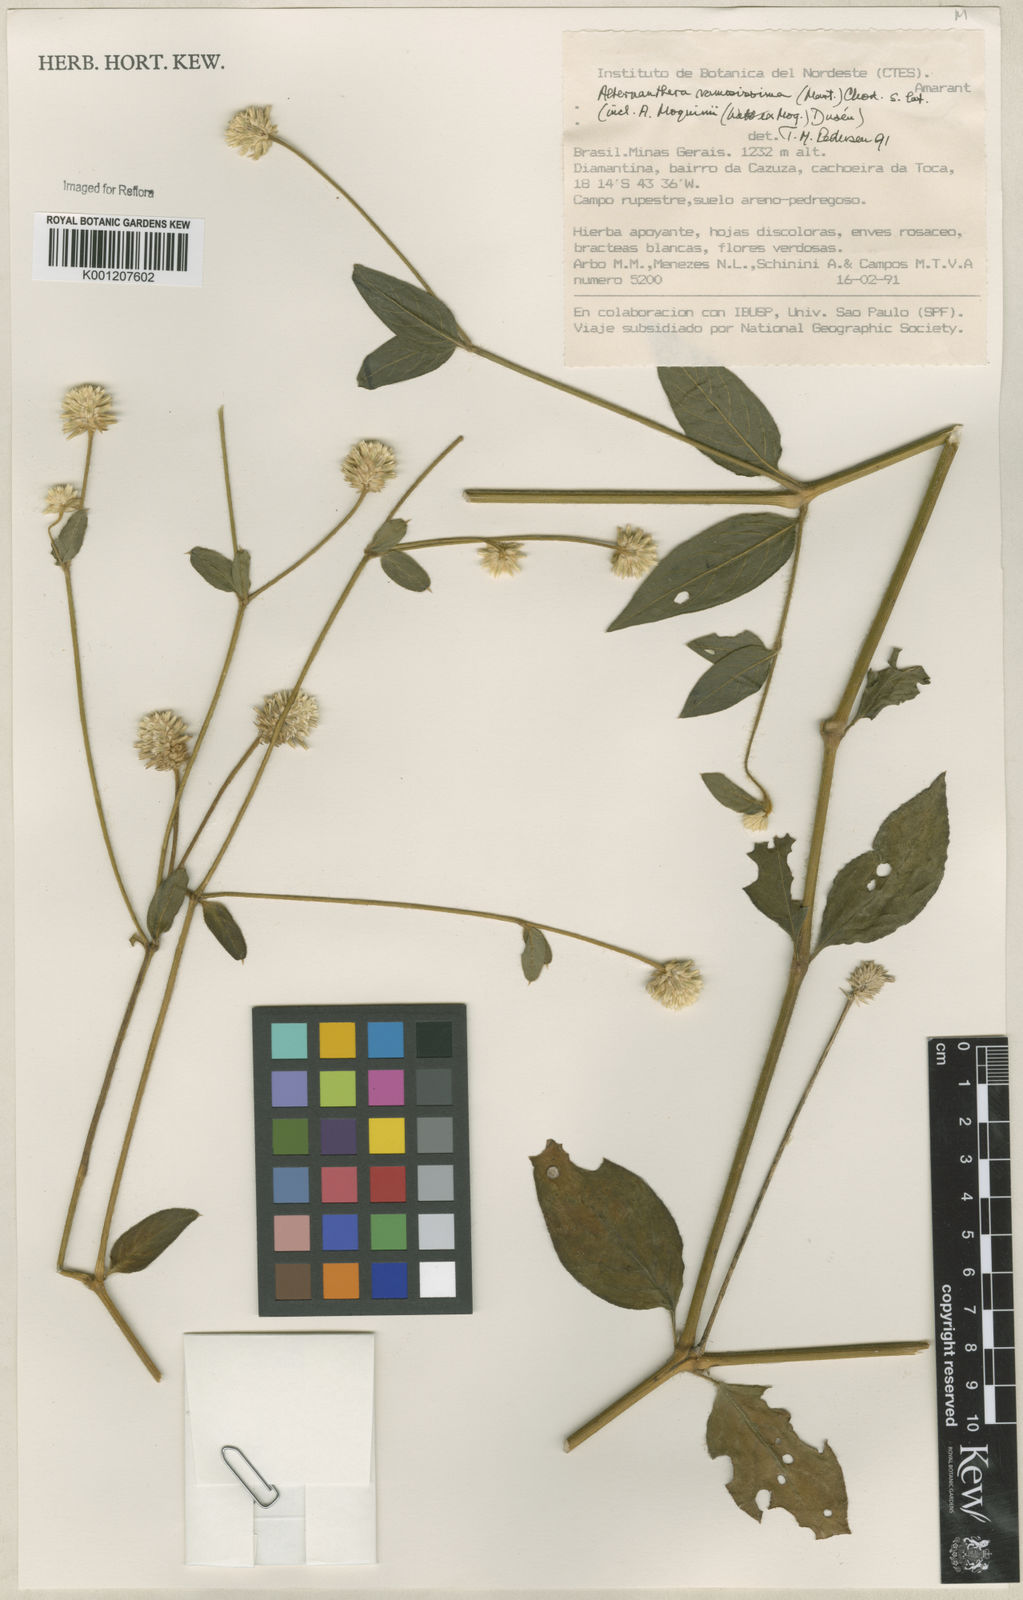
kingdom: Plantae
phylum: Tracheophyta
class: Magnoliopsida
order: Caryophyllales
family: Amaranthaceae
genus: Alternanthera
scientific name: Alternanthera ramosissima
